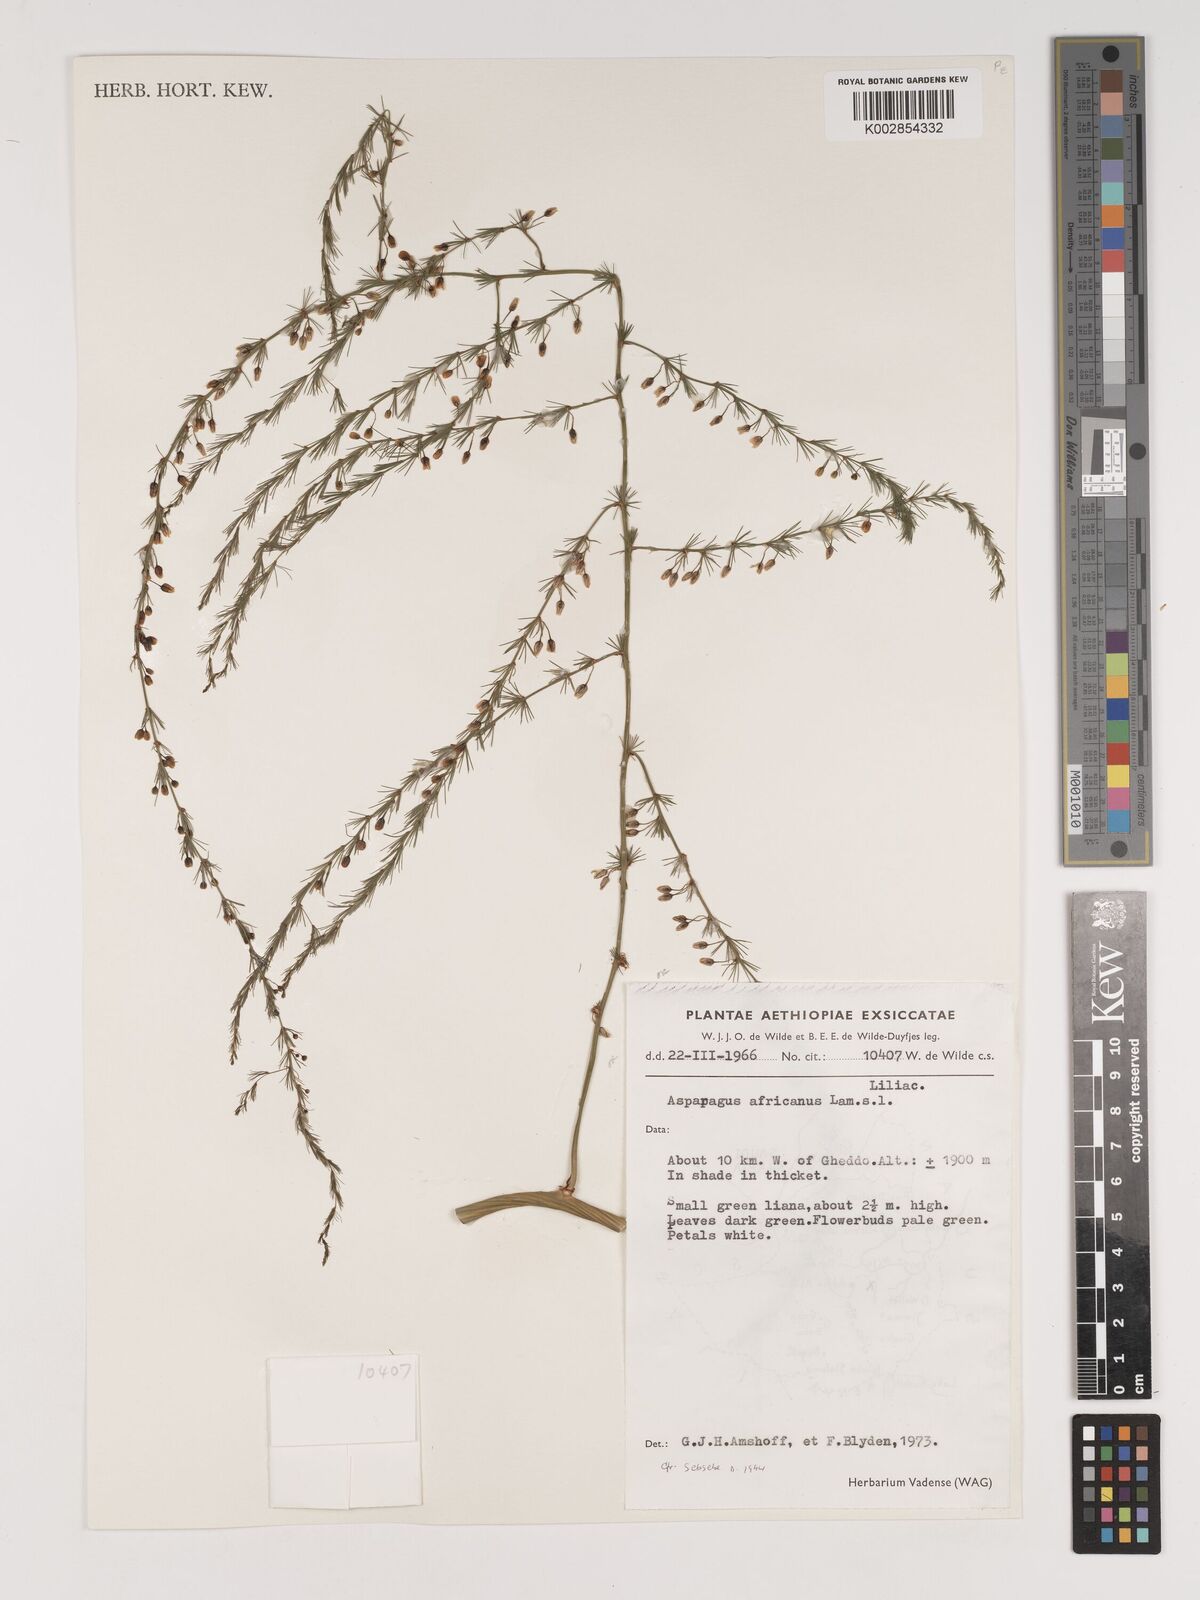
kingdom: Plantae
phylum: Tracheophyta
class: Liliopsida
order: Asparagales
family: Asparagaceae
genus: Asparagus
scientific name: Asparagus africanus
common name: Asparagus-fern
